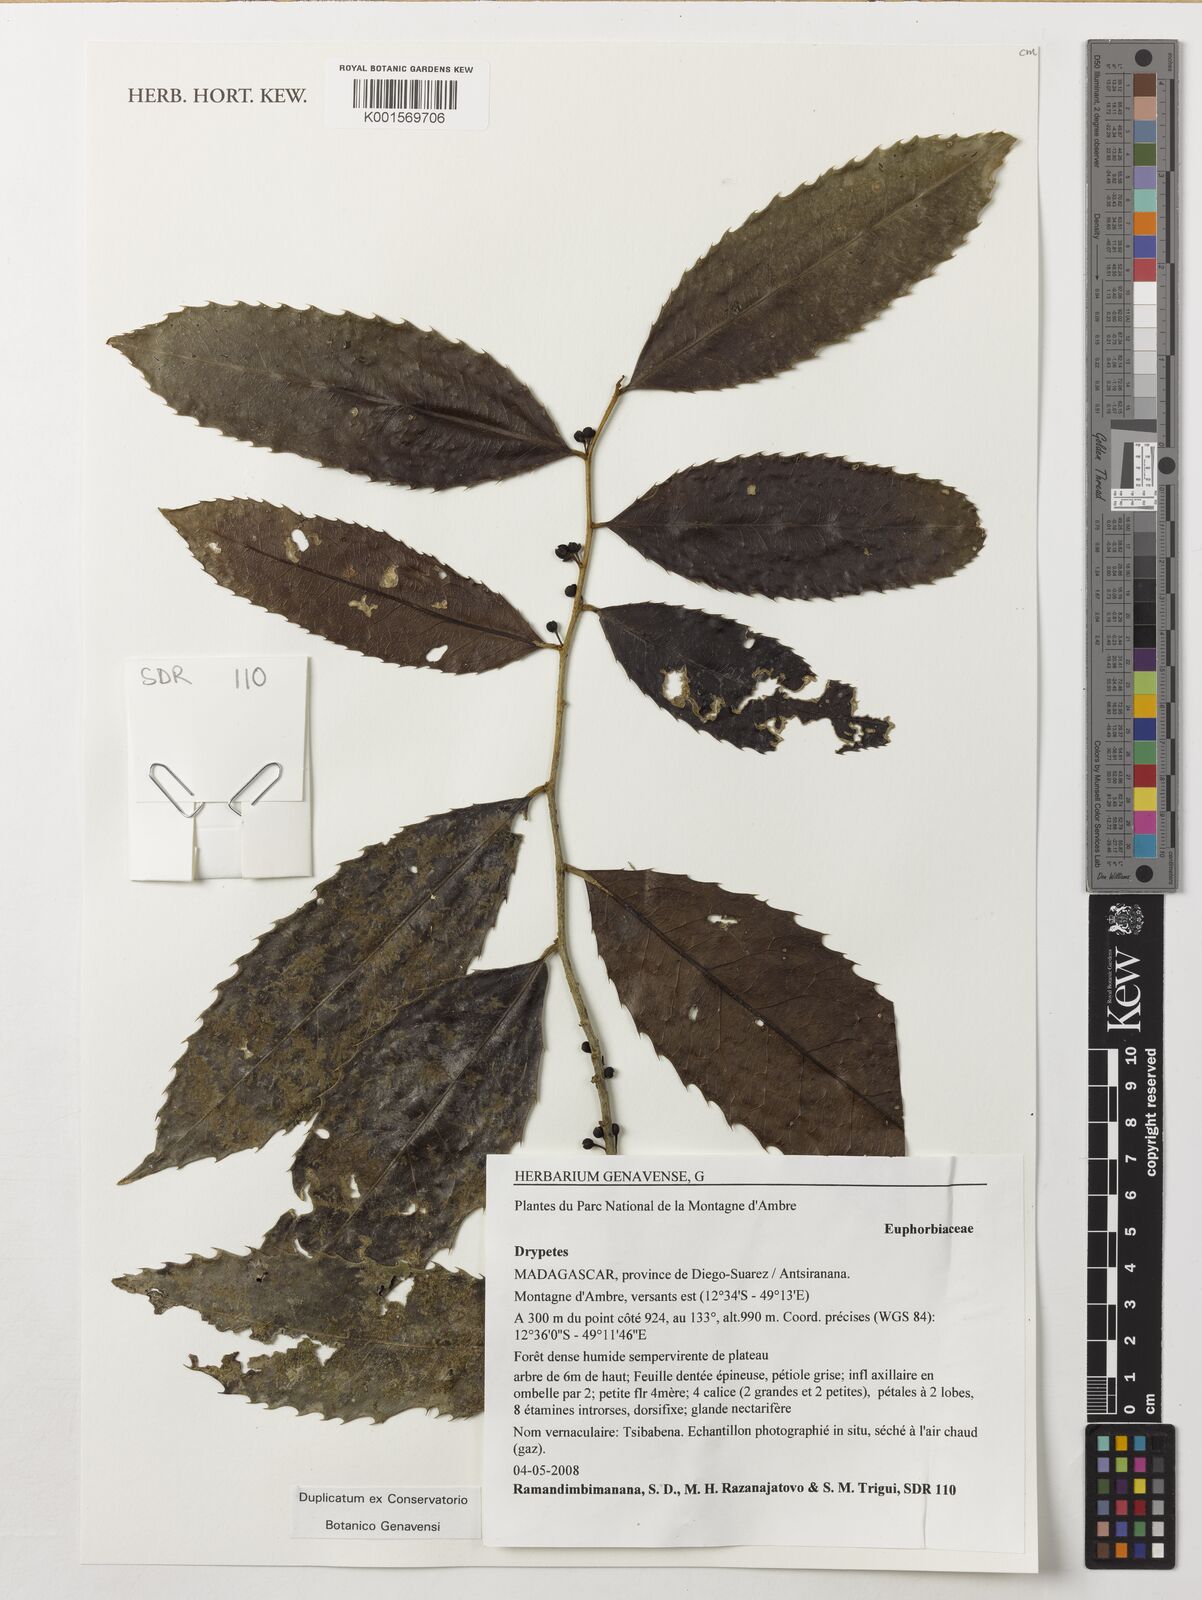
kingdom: Plantae
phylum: Tracheophyta
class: Magnoliopsida
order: Malpighiales
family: Putranjivaceae
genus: Drypetes
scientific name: Drypetes
